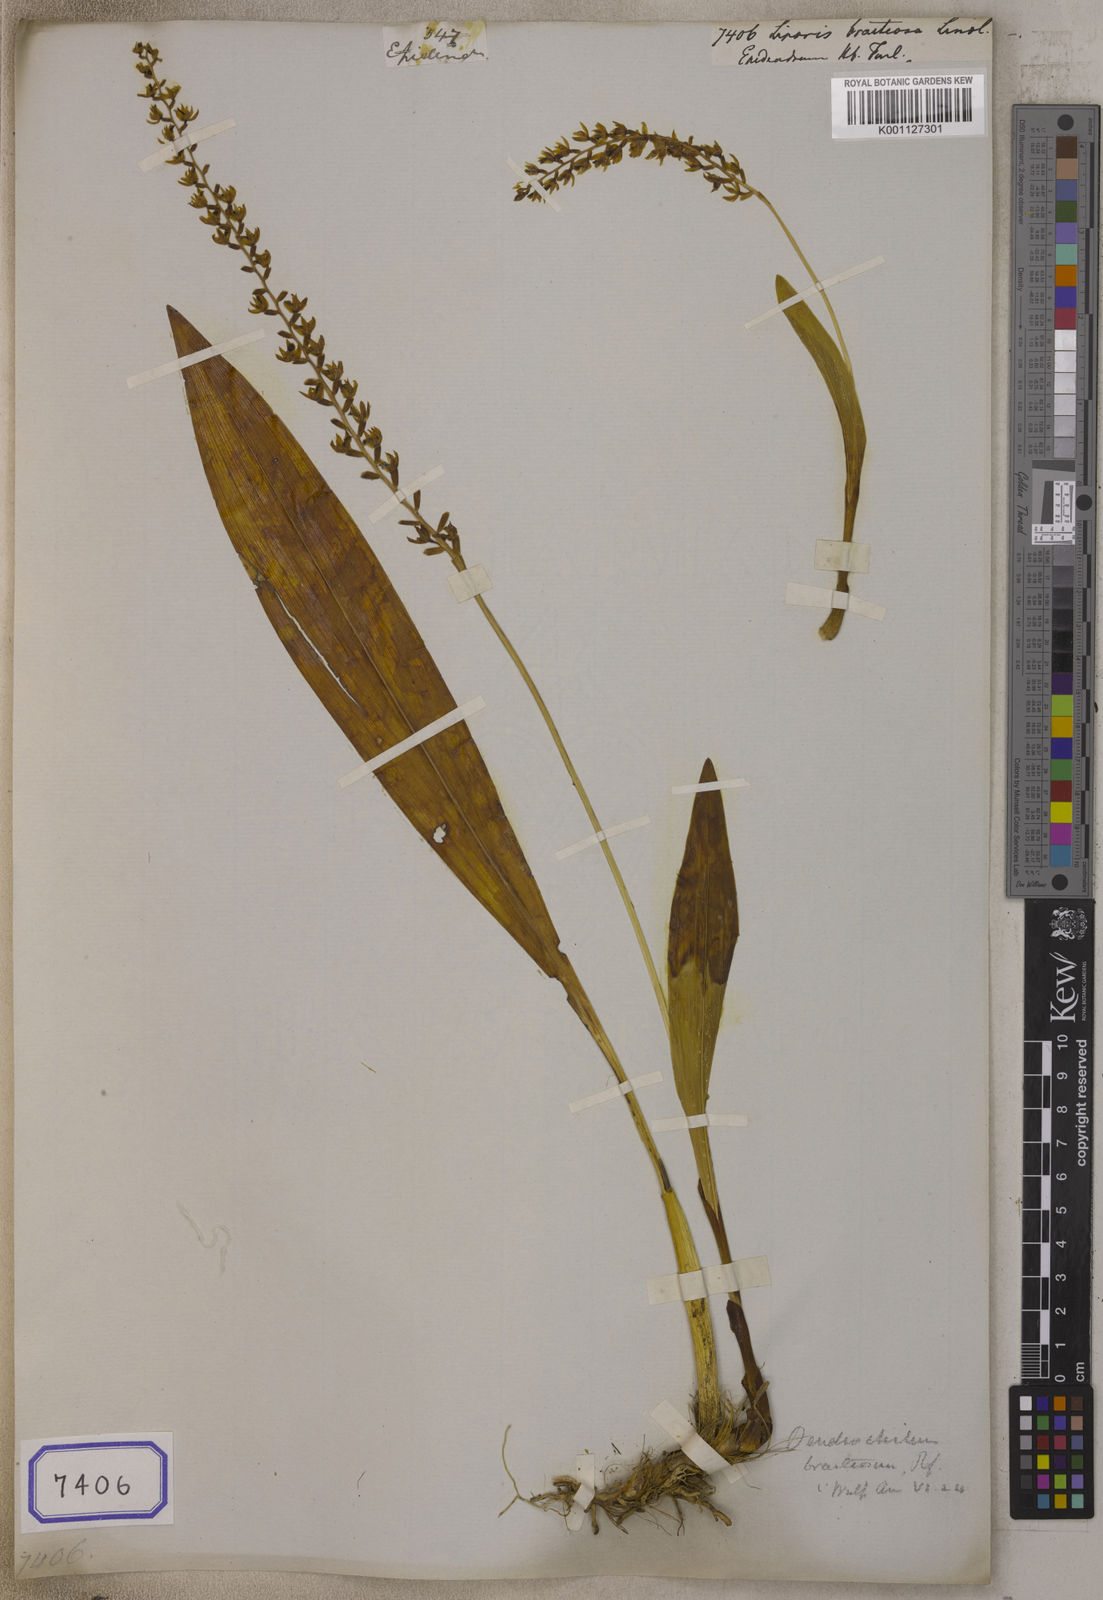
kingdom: Plantae
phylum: Tracheophyta
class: Liliopsida
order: Asparagales
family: Orchidaceae
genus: Liparis
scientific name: Liparis
